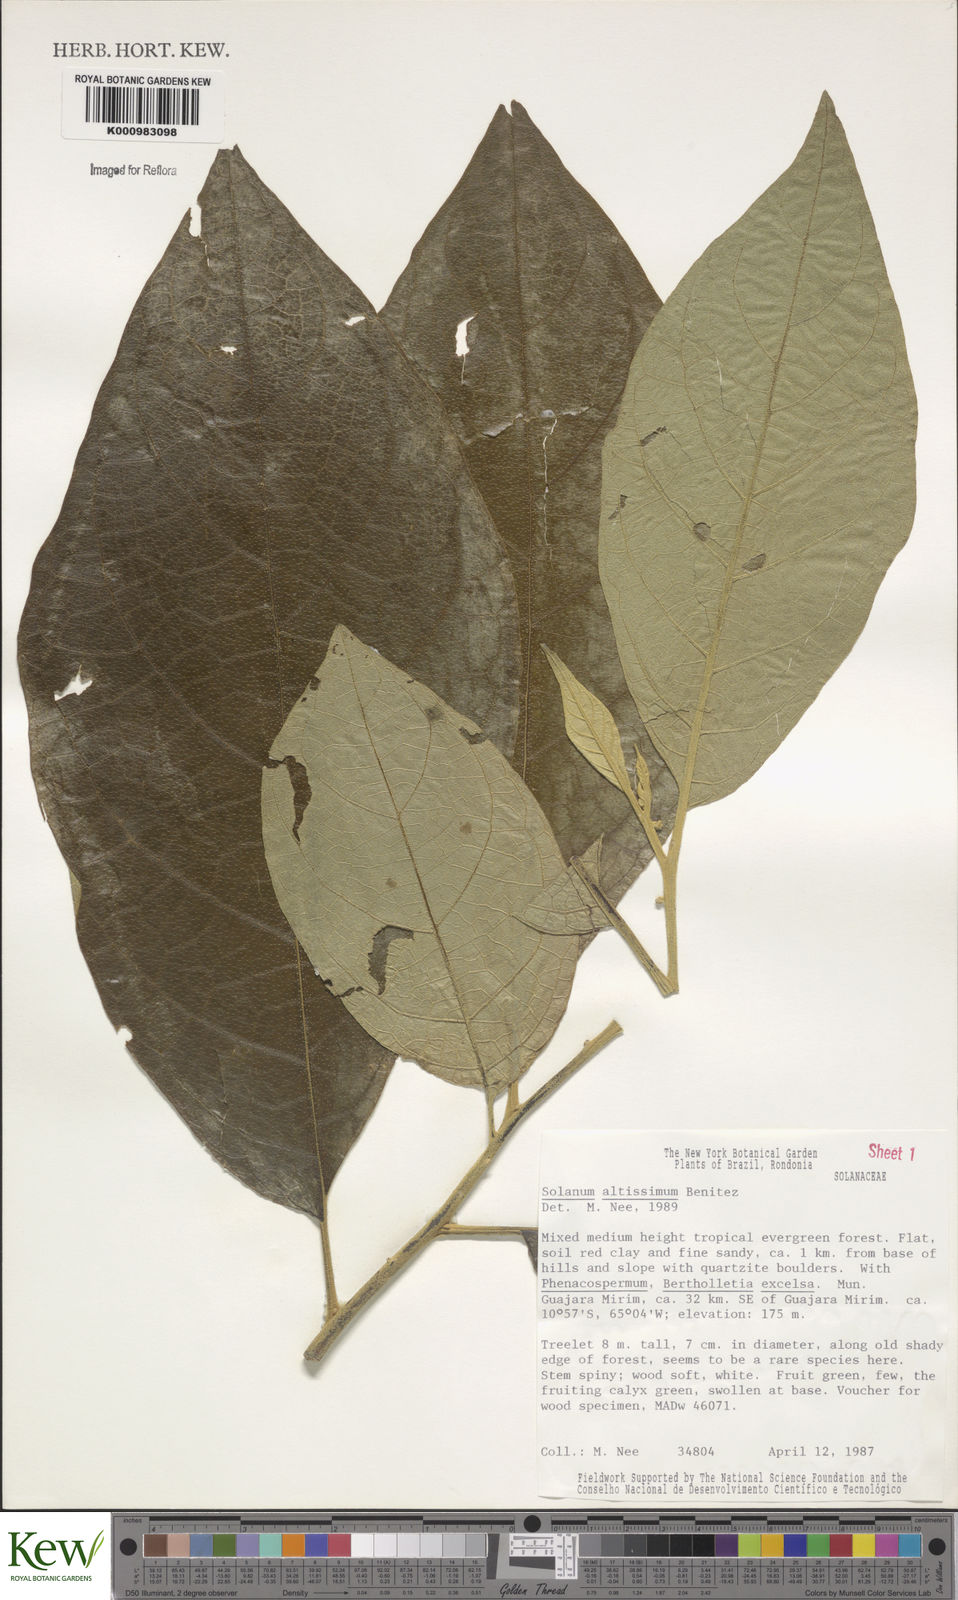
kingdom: Plantae
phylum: Tracheophyta
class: Magnoliopsida
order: Solanales
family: Solanaceae
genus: Solanum
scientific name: Solanum kioniotrichum
